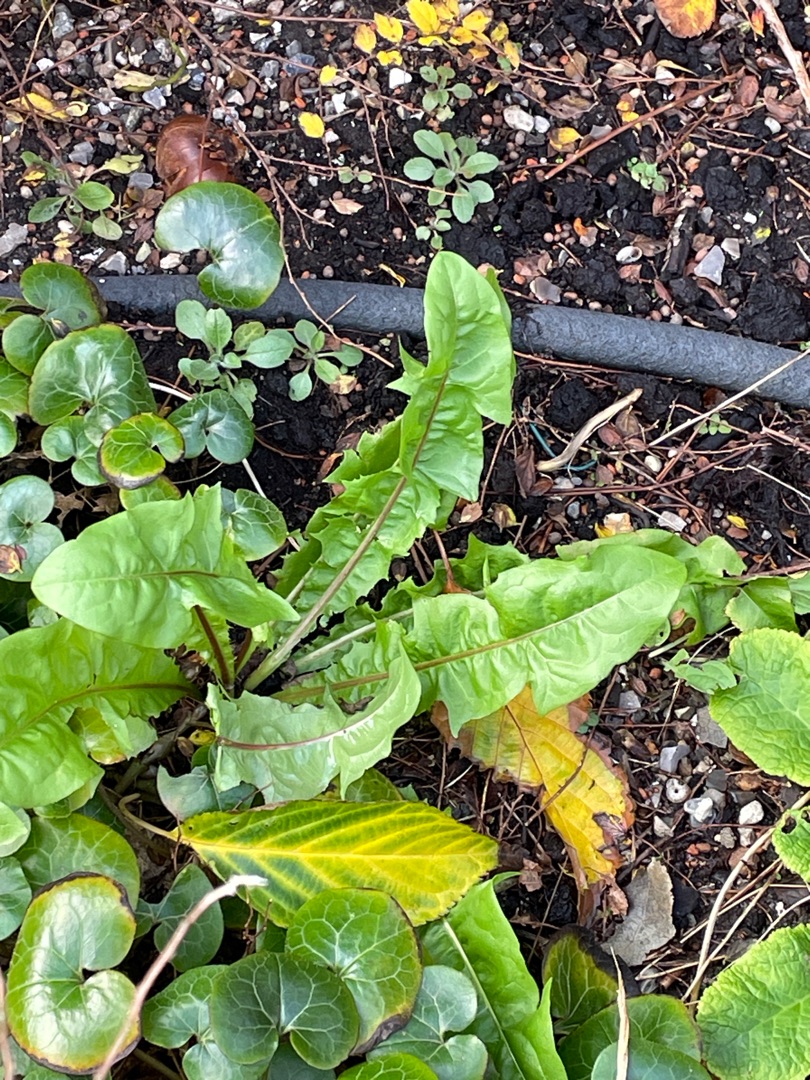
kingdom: Plantae
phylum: Tracheophyta
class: Magnoliopsida
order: Asterales
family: Asteraceae
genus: Taraxacum
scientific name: Taraxacum
